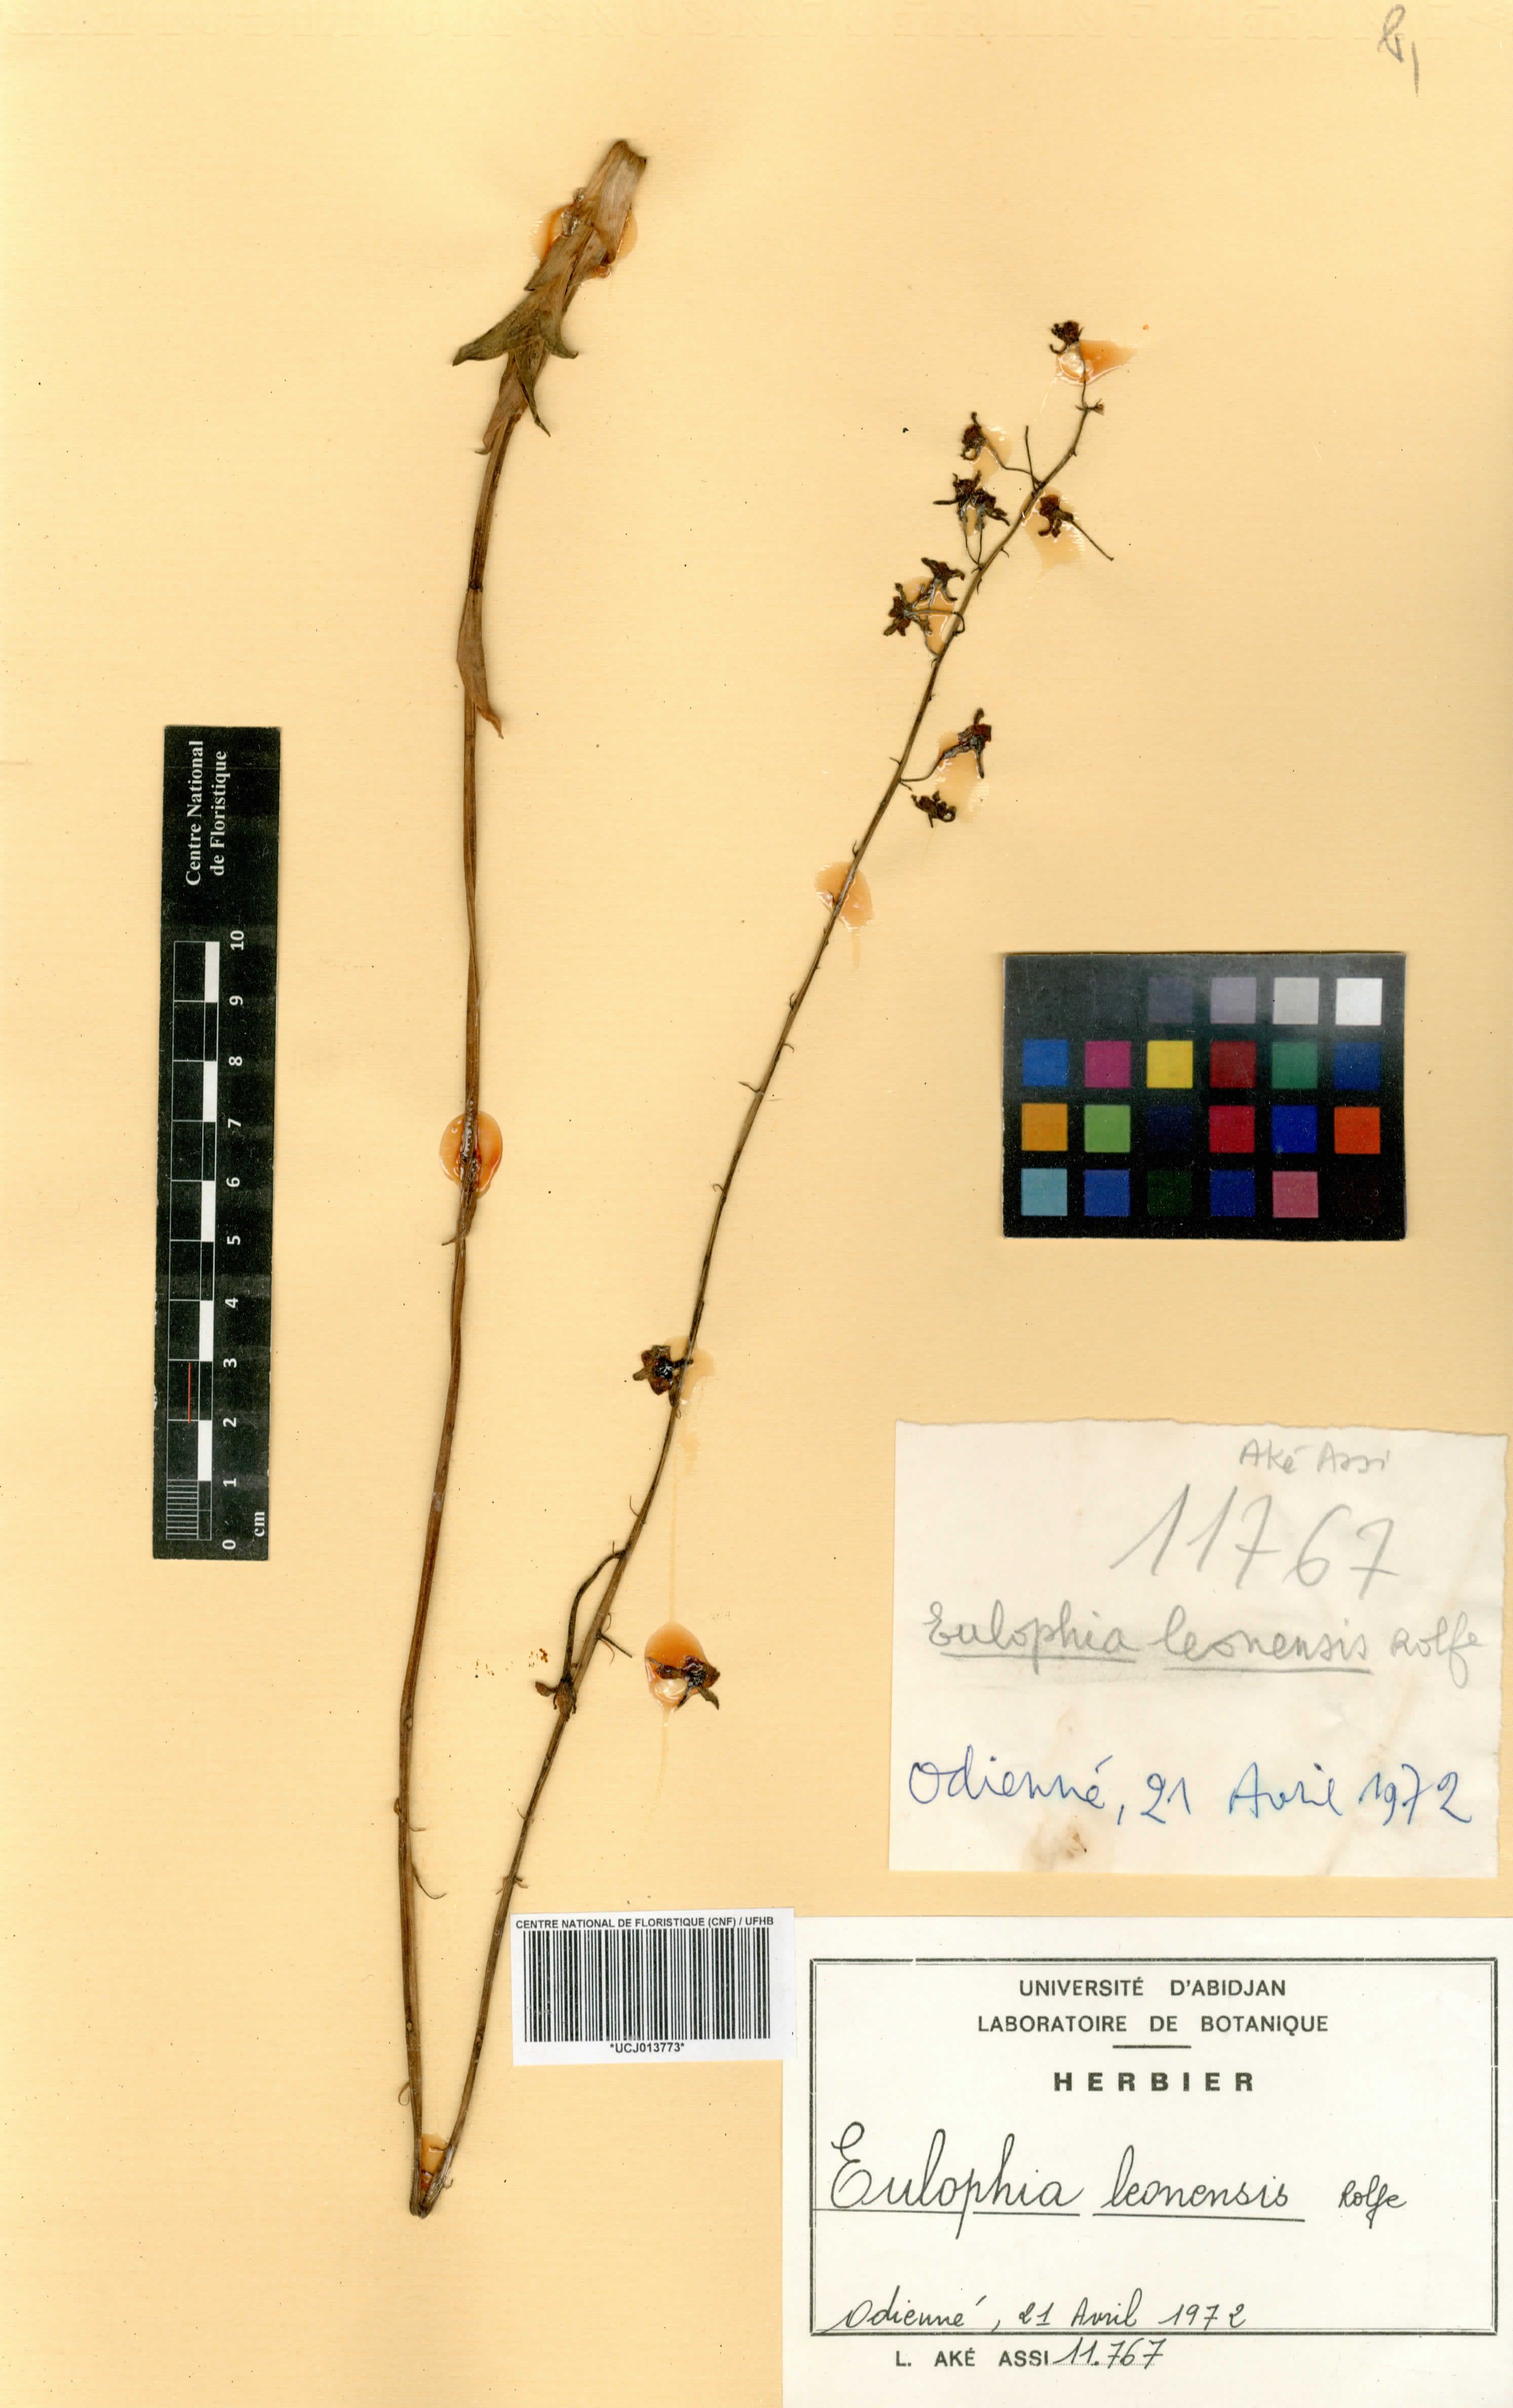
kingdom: Plantae
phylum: Tracheophyta
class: Liliopsida
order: Asparagales
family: Orchidaceae
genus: Eulophia
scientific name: Eulophia juncifolia
